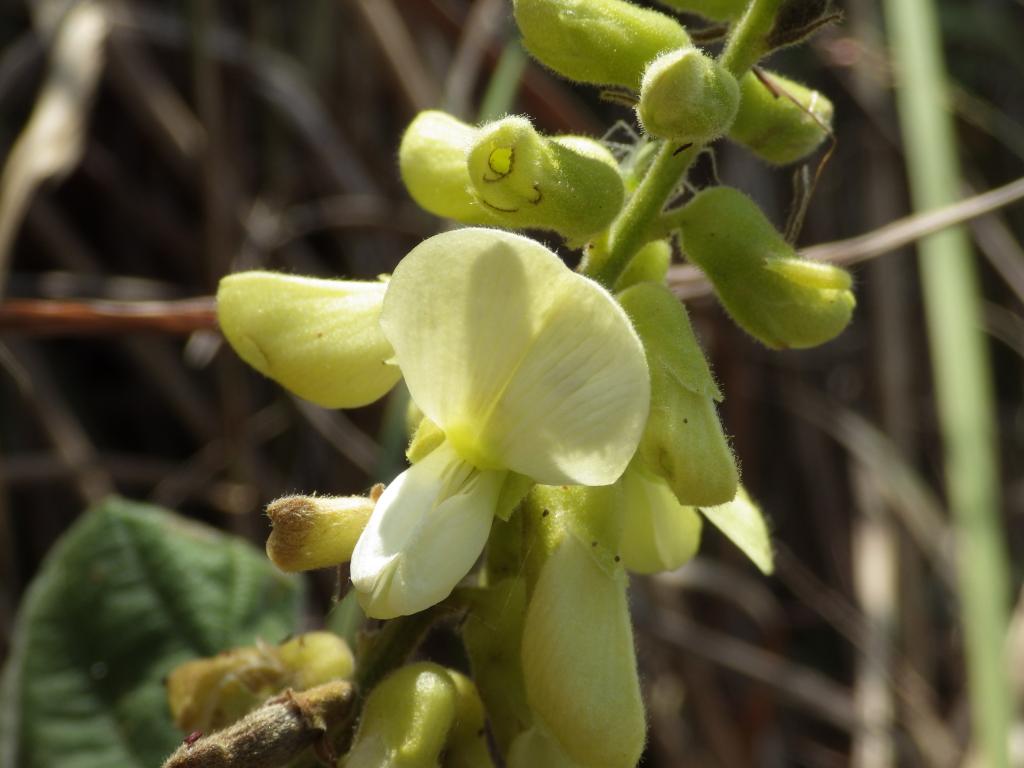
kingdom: Plantae
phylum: Tracheophyta
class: Magnoliopsida
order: Fabales
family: Fabaceae
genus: Rhynchosia
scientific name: Rhynchosia rothii
